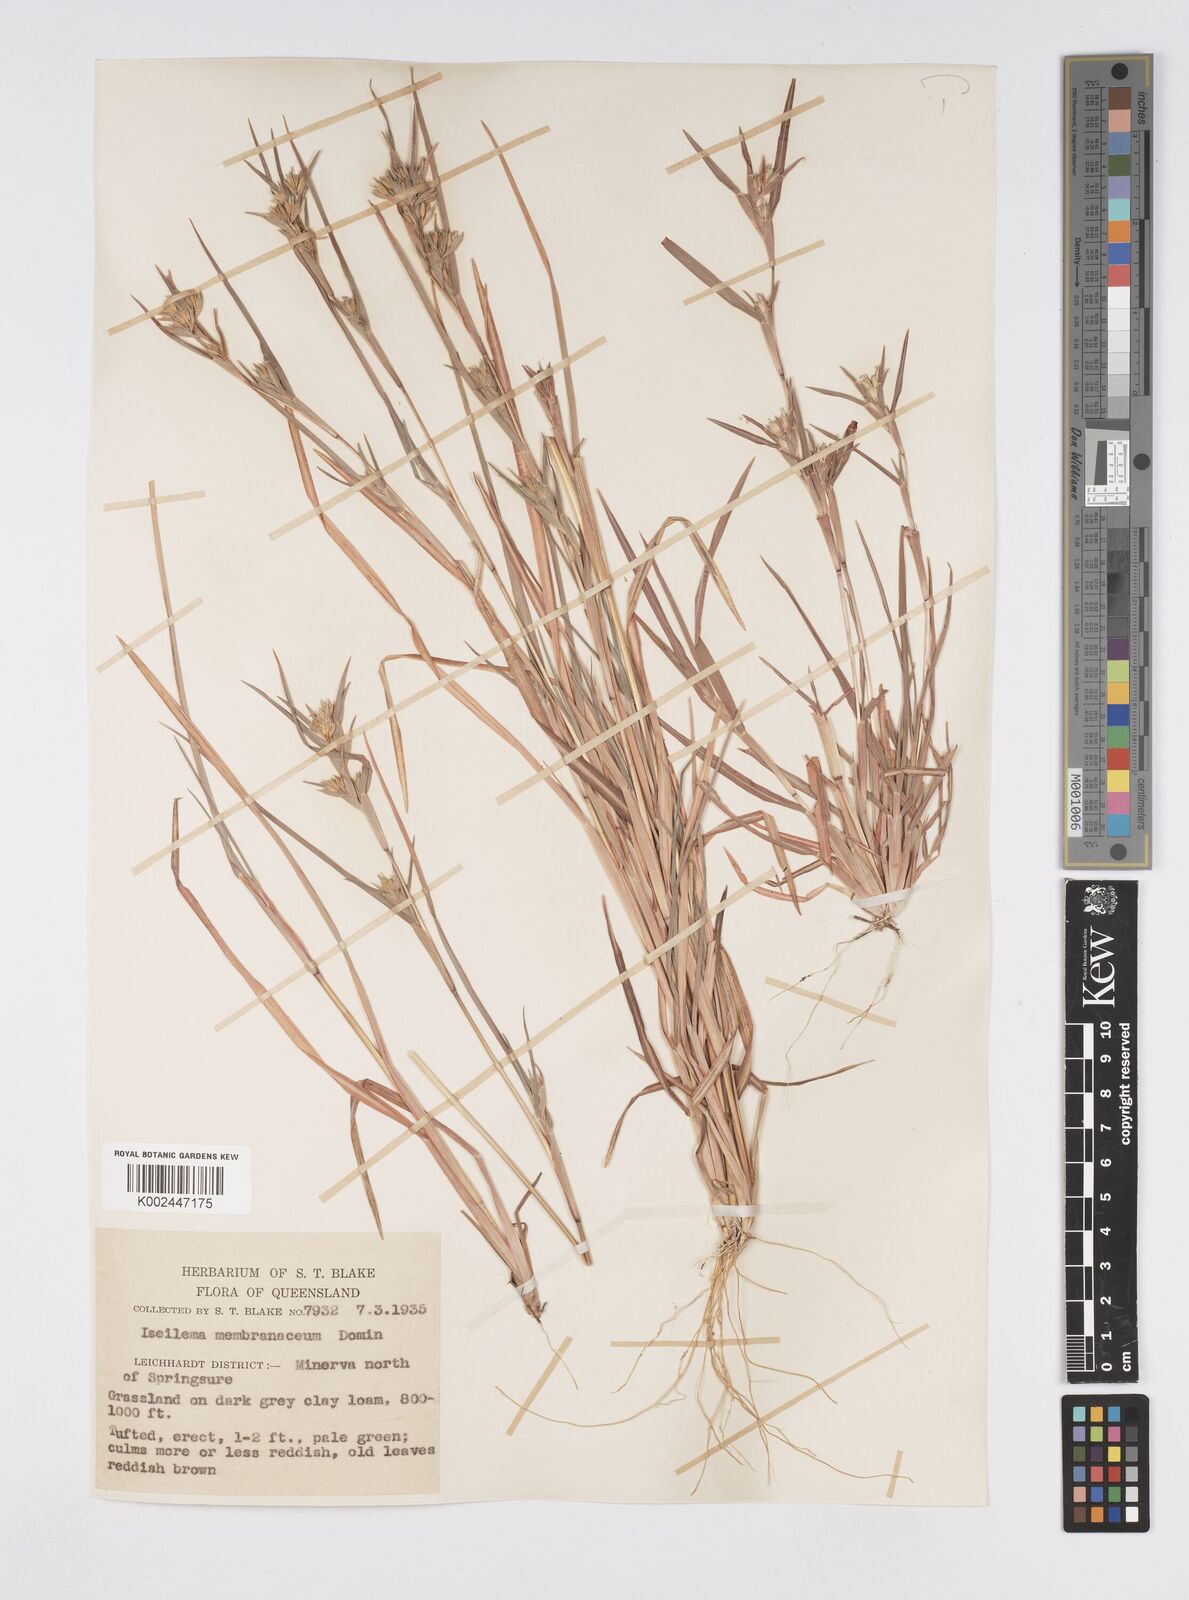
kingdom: Plantae
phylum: Tracheophyta
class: Liliopsida
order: Poales
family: Poaceae
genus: Iseilema
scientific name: Iseilema membranaceum
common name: Small flinders grass
